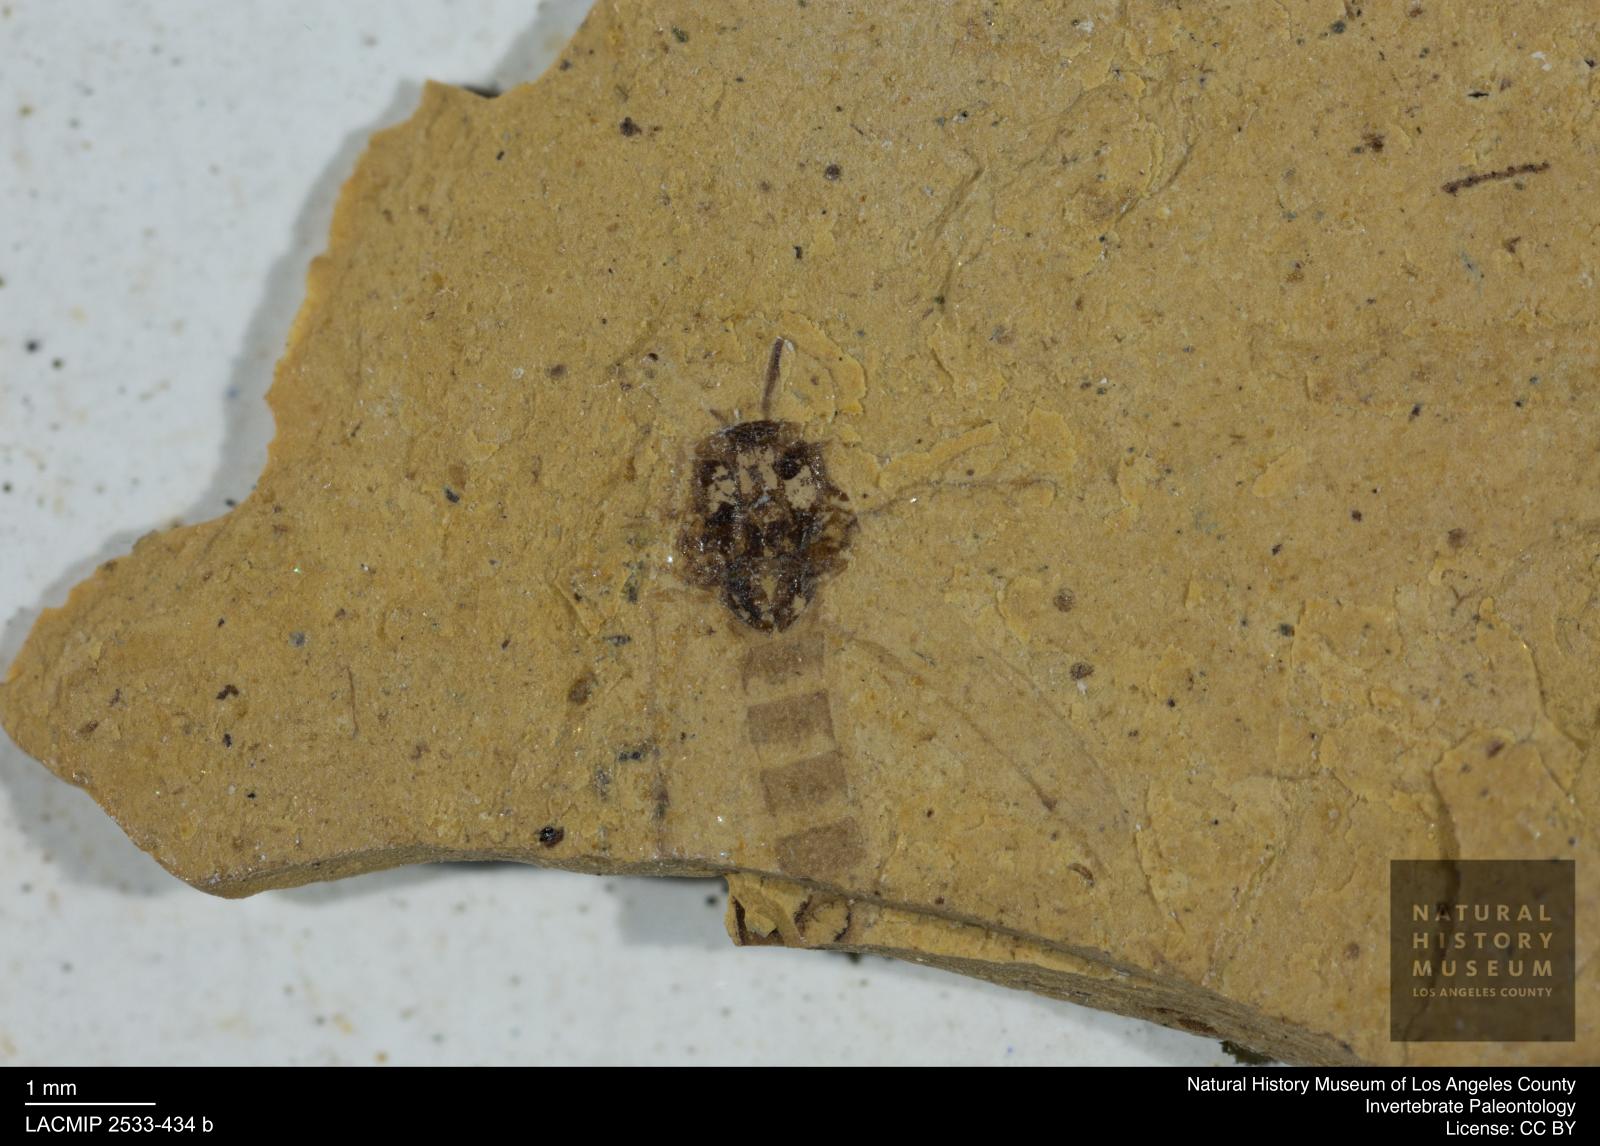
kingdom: Animalia
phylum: Arthropoda
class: Insecta
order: Diptera
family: Chironomidae
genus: Tanypus
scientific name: Tanypus thienemanni
